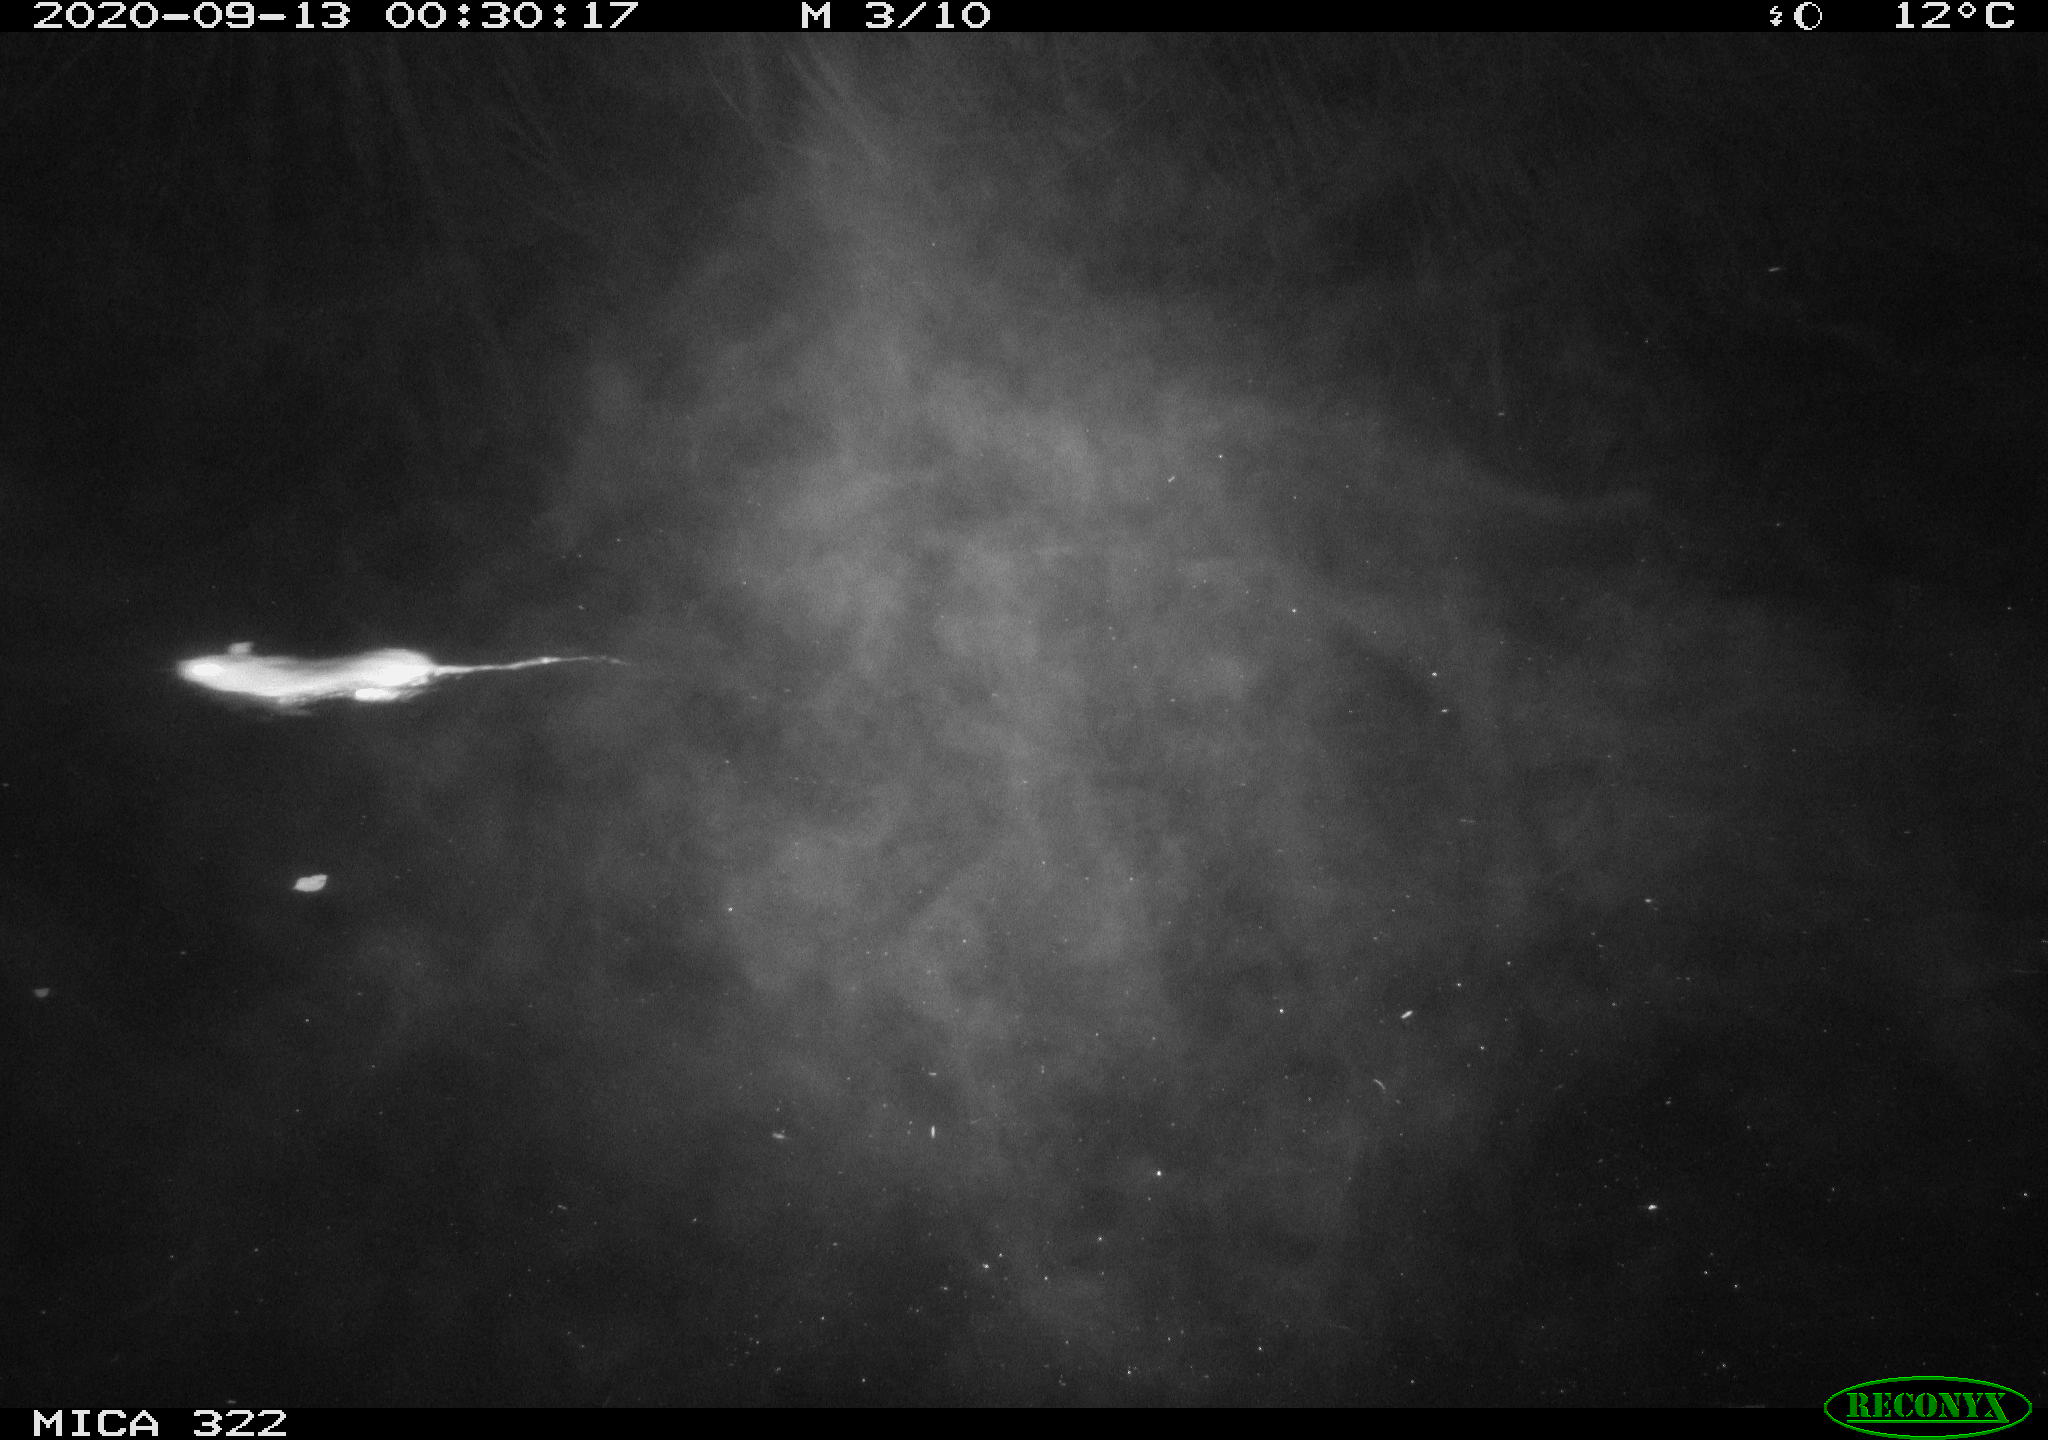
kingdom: Animalia
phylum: Chordata
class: Mammalia
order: Rodentia
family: Muridae
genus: Rattus
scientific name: Rattus norvegicus
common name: Brown rat
